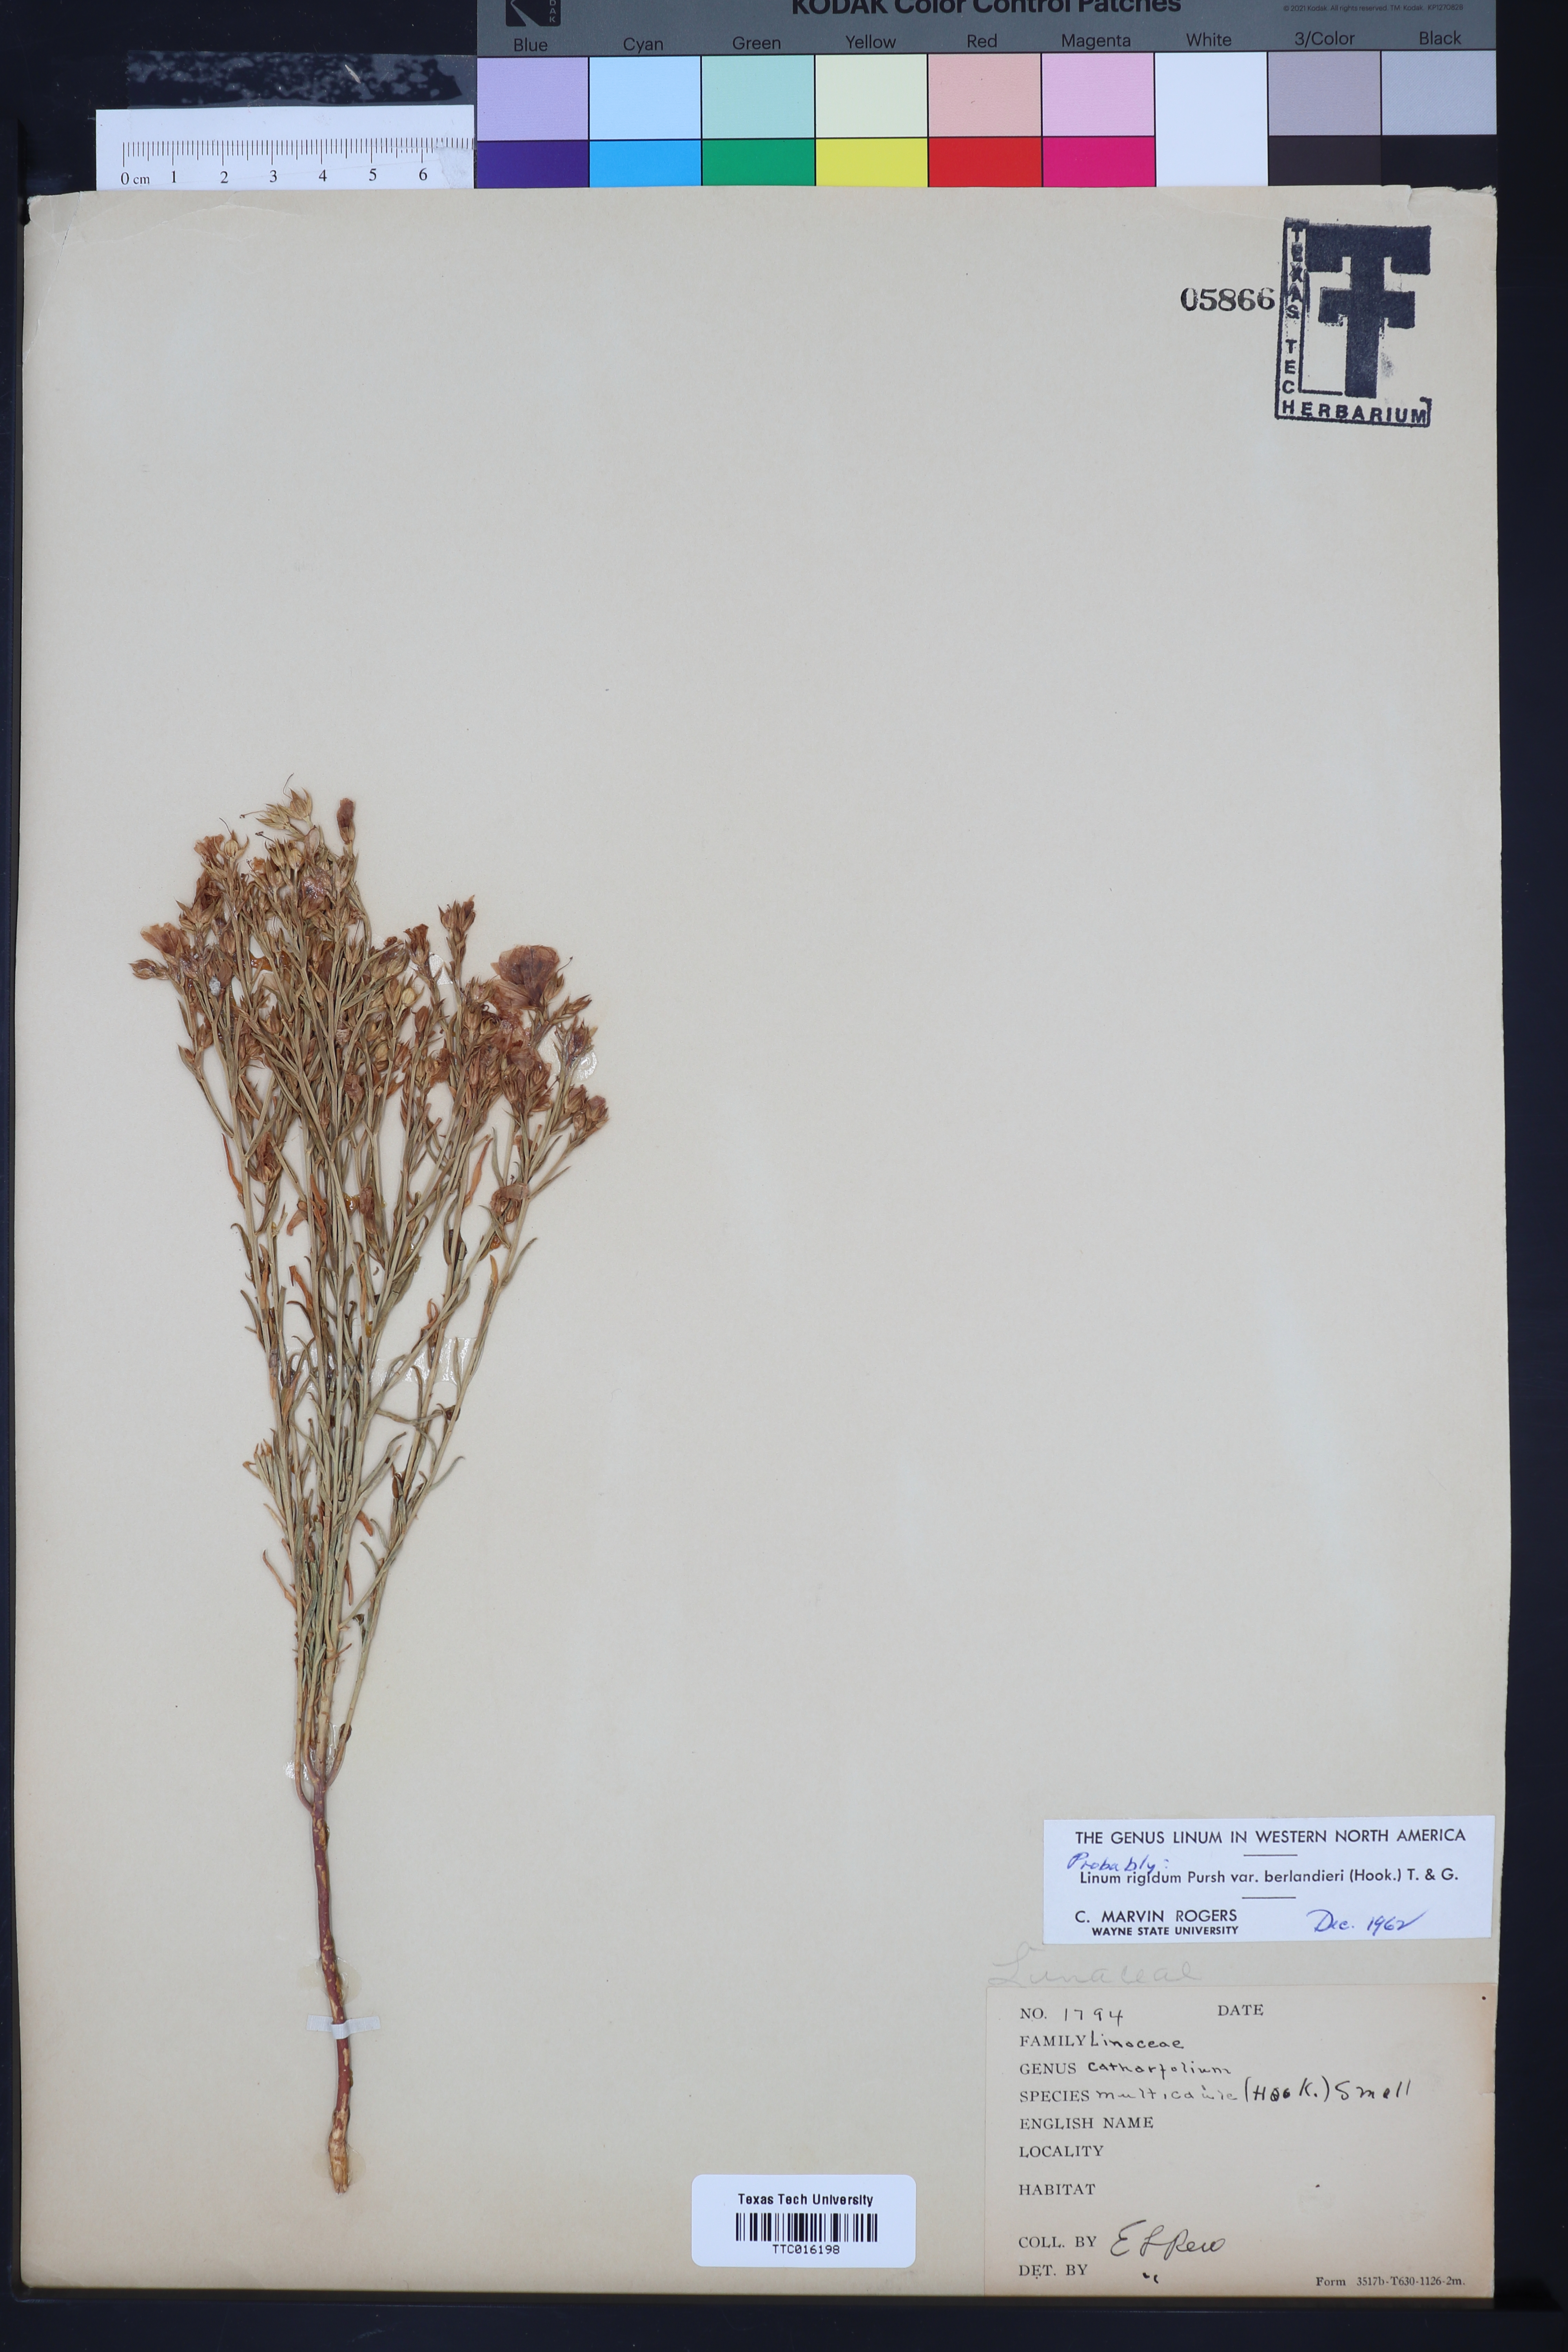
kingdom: Plantae
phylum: Tracheophyta
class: Magnoliopsida
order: Malpighiales
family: Linaceae
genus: Linum
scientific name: Linum berlandieri
